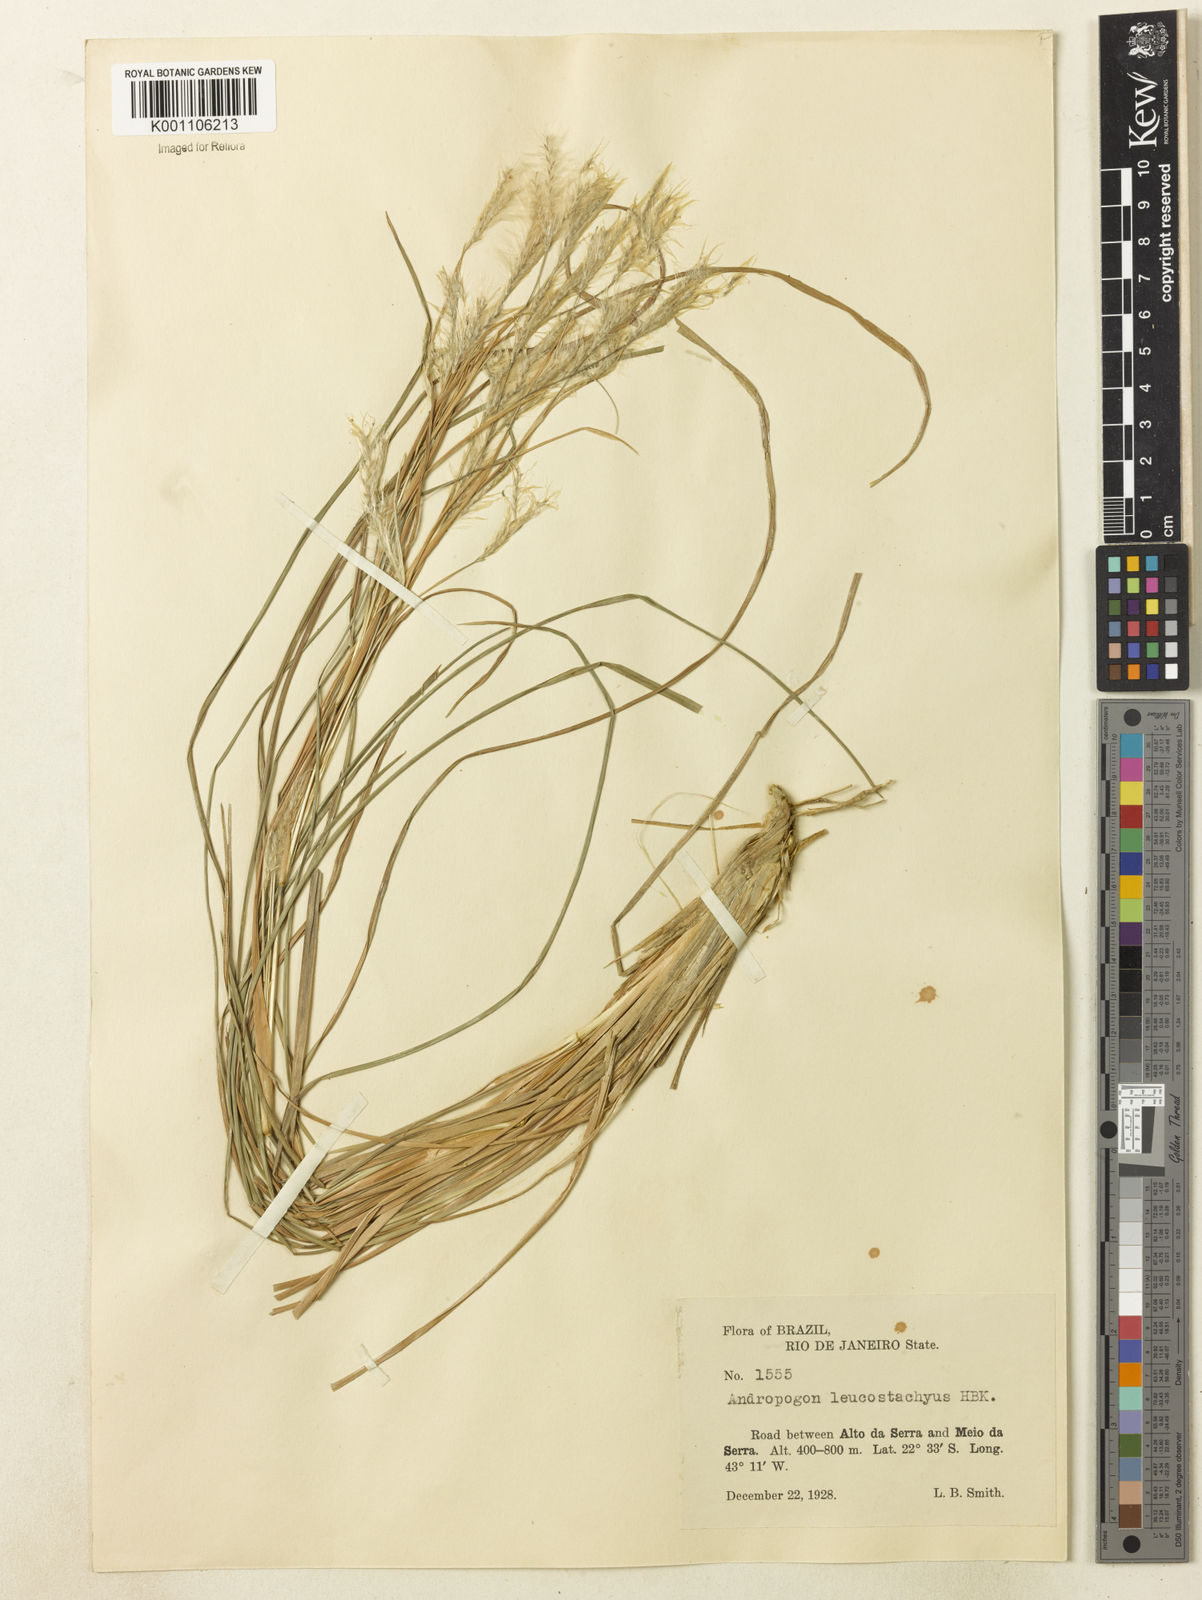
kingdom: Plantae
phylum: Tracheophyta
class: Liliopsida
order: Poales
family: Poaceae
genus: Andropogon
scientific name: Andropogon leucostachyus
